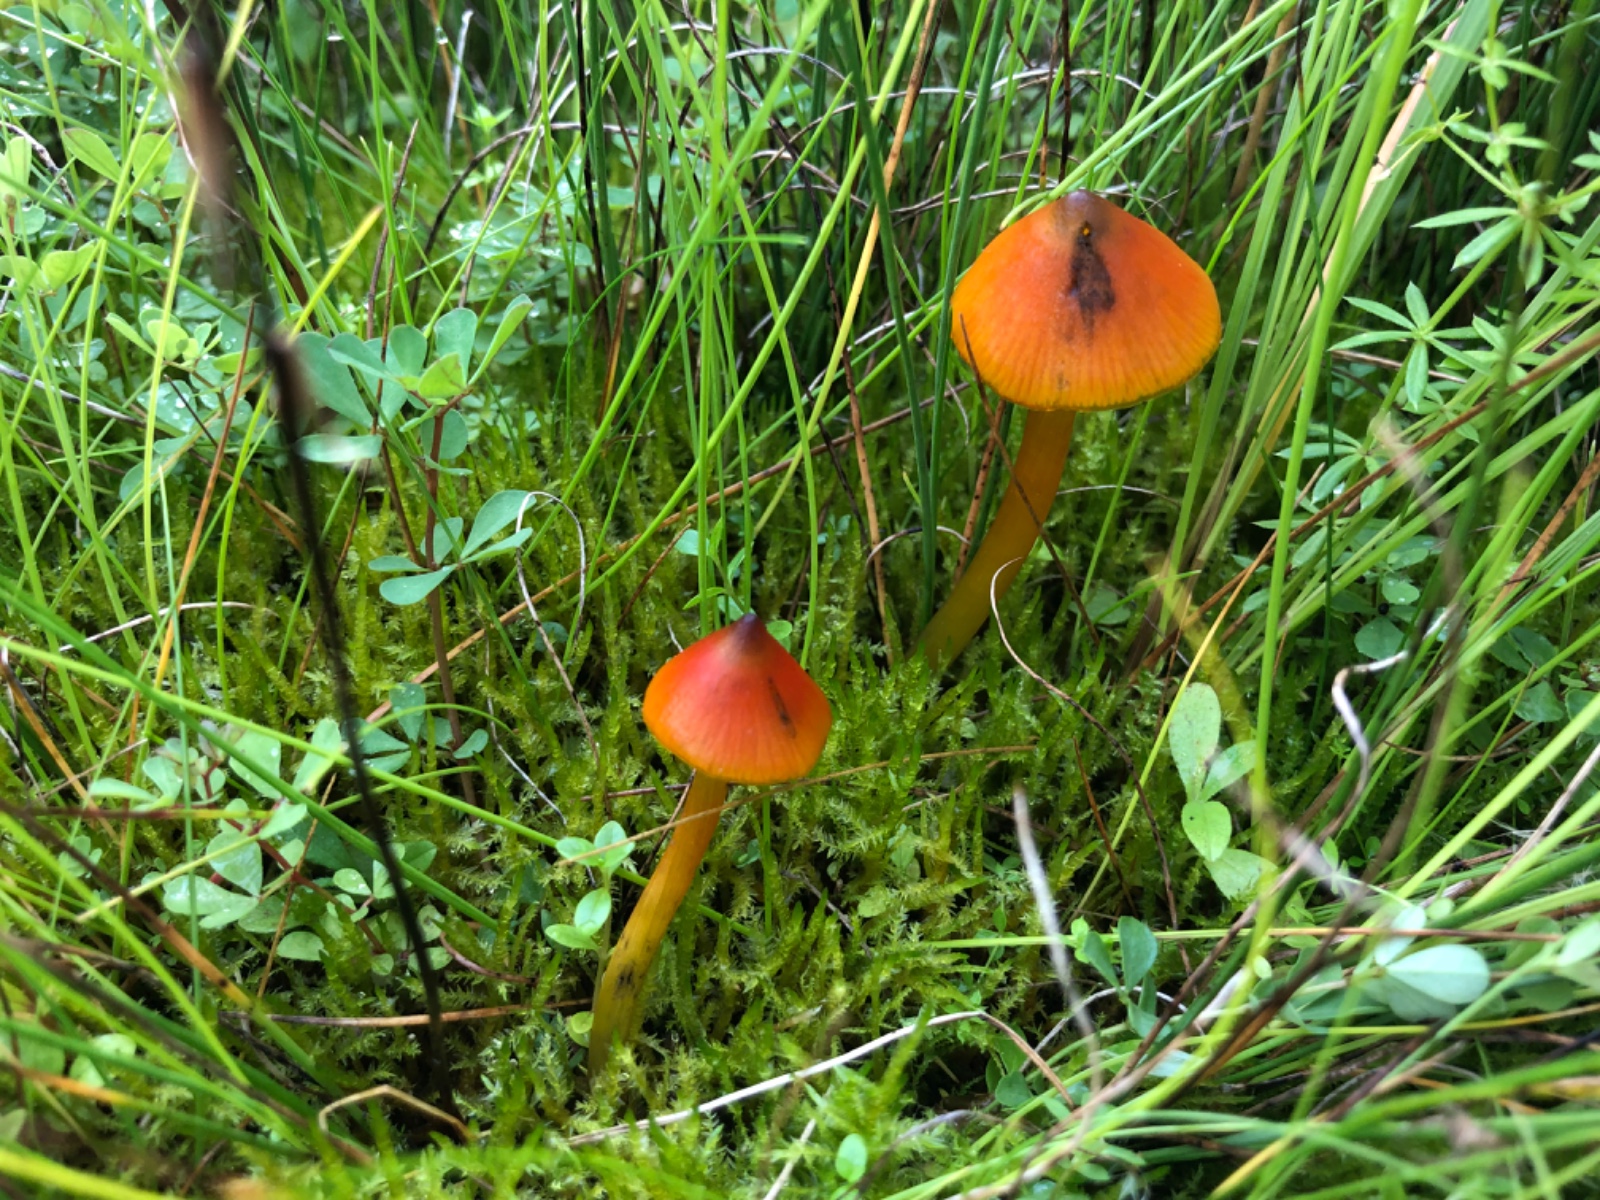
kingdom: Fungi
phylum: Basidiomycota
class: Agaricomycetes
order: Agaricales
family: Hygrophoraceae
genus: Hygrocybe
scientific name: Hygrocybe conica
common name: Blackening wax-cap
